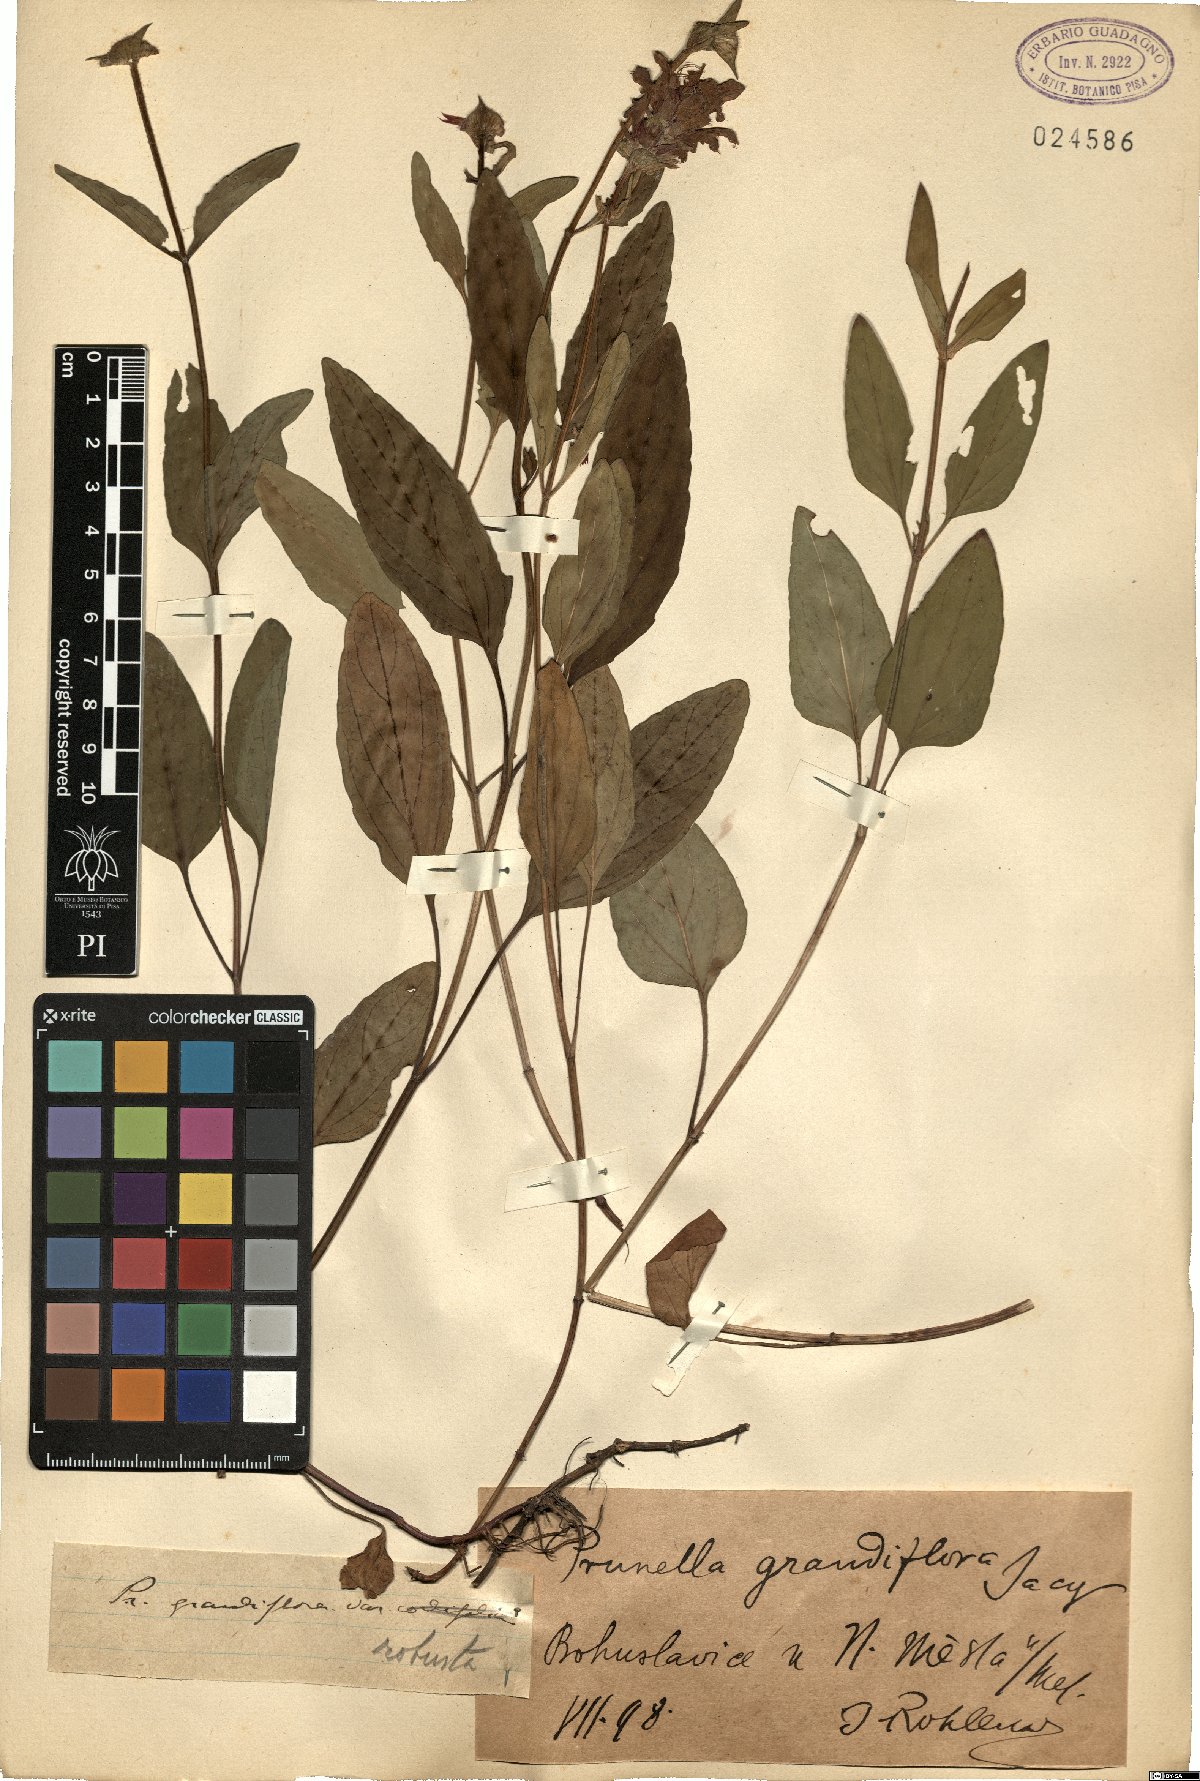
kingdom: Plantae
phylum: Tracheophyta
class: Magnoliopsida
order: Lamiales
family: Lamiaceae
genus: Prunella
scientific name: Prunella grandiflora
